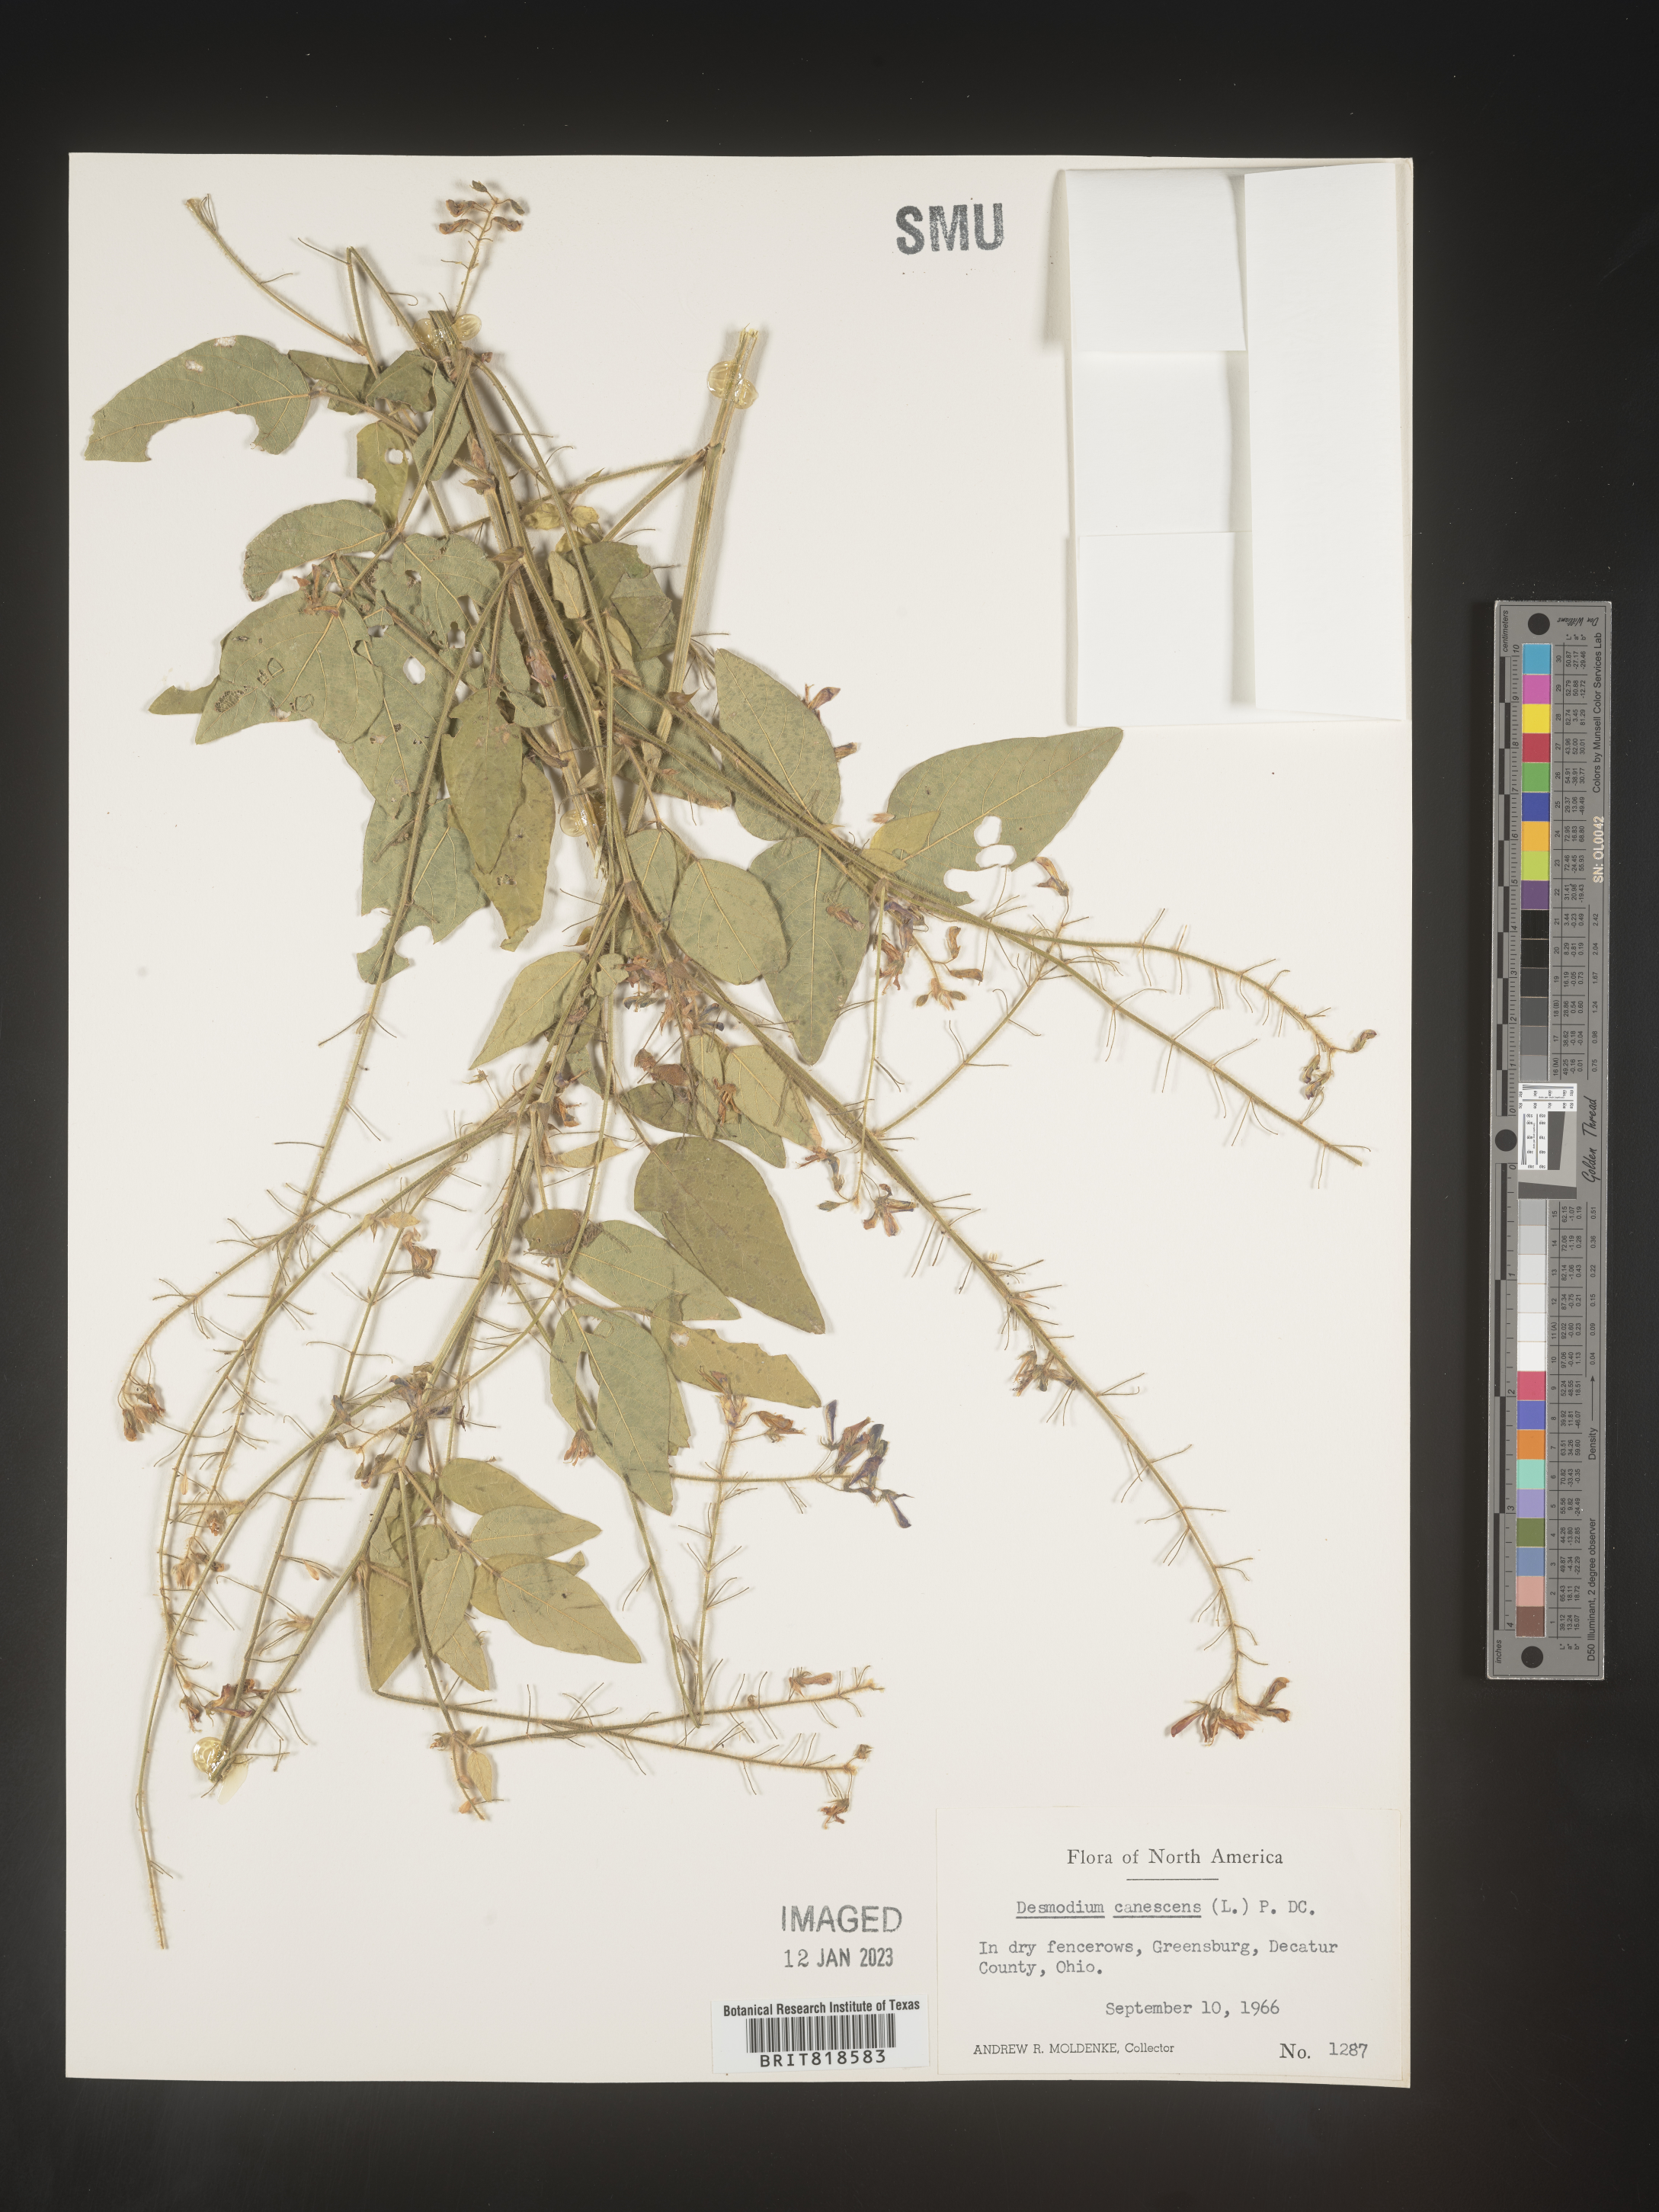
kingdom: Plantae
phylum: Tracheophyta
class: Magnoliopsida
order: Fabales
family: Fabaceae
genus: Desmodium
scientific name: Desmodium canescens
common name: Hoary tick-clover
